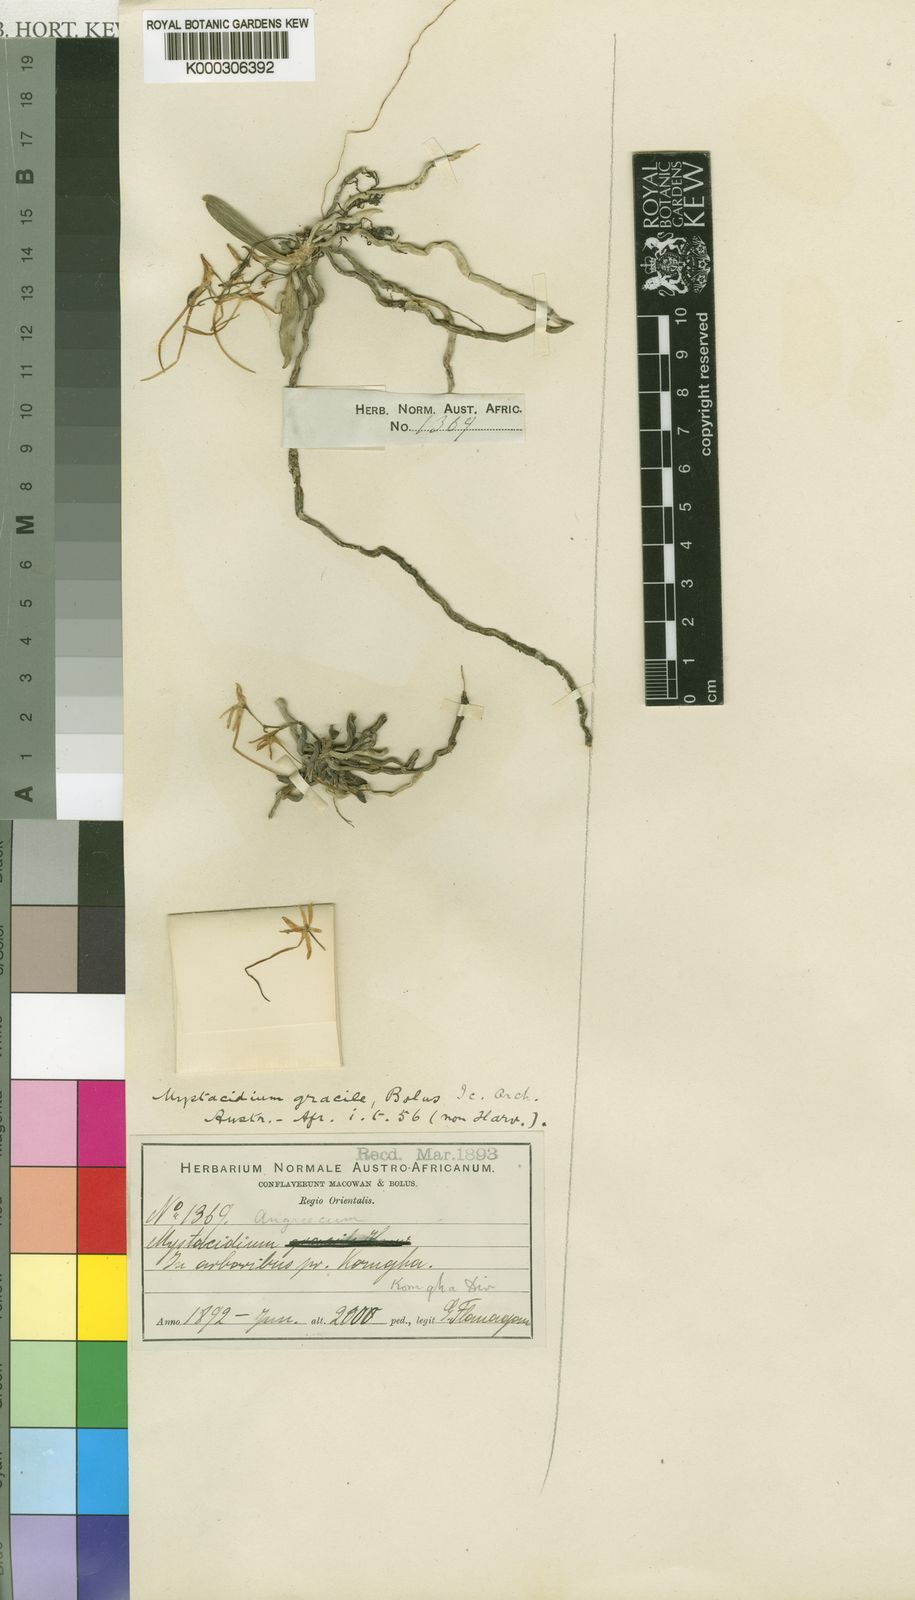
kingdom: Plantae
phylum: Tracheophyta
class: Liliopsida
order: Asparagales
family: Orchidaceae
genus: Mystacidium
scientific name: Mystacidium venosum
